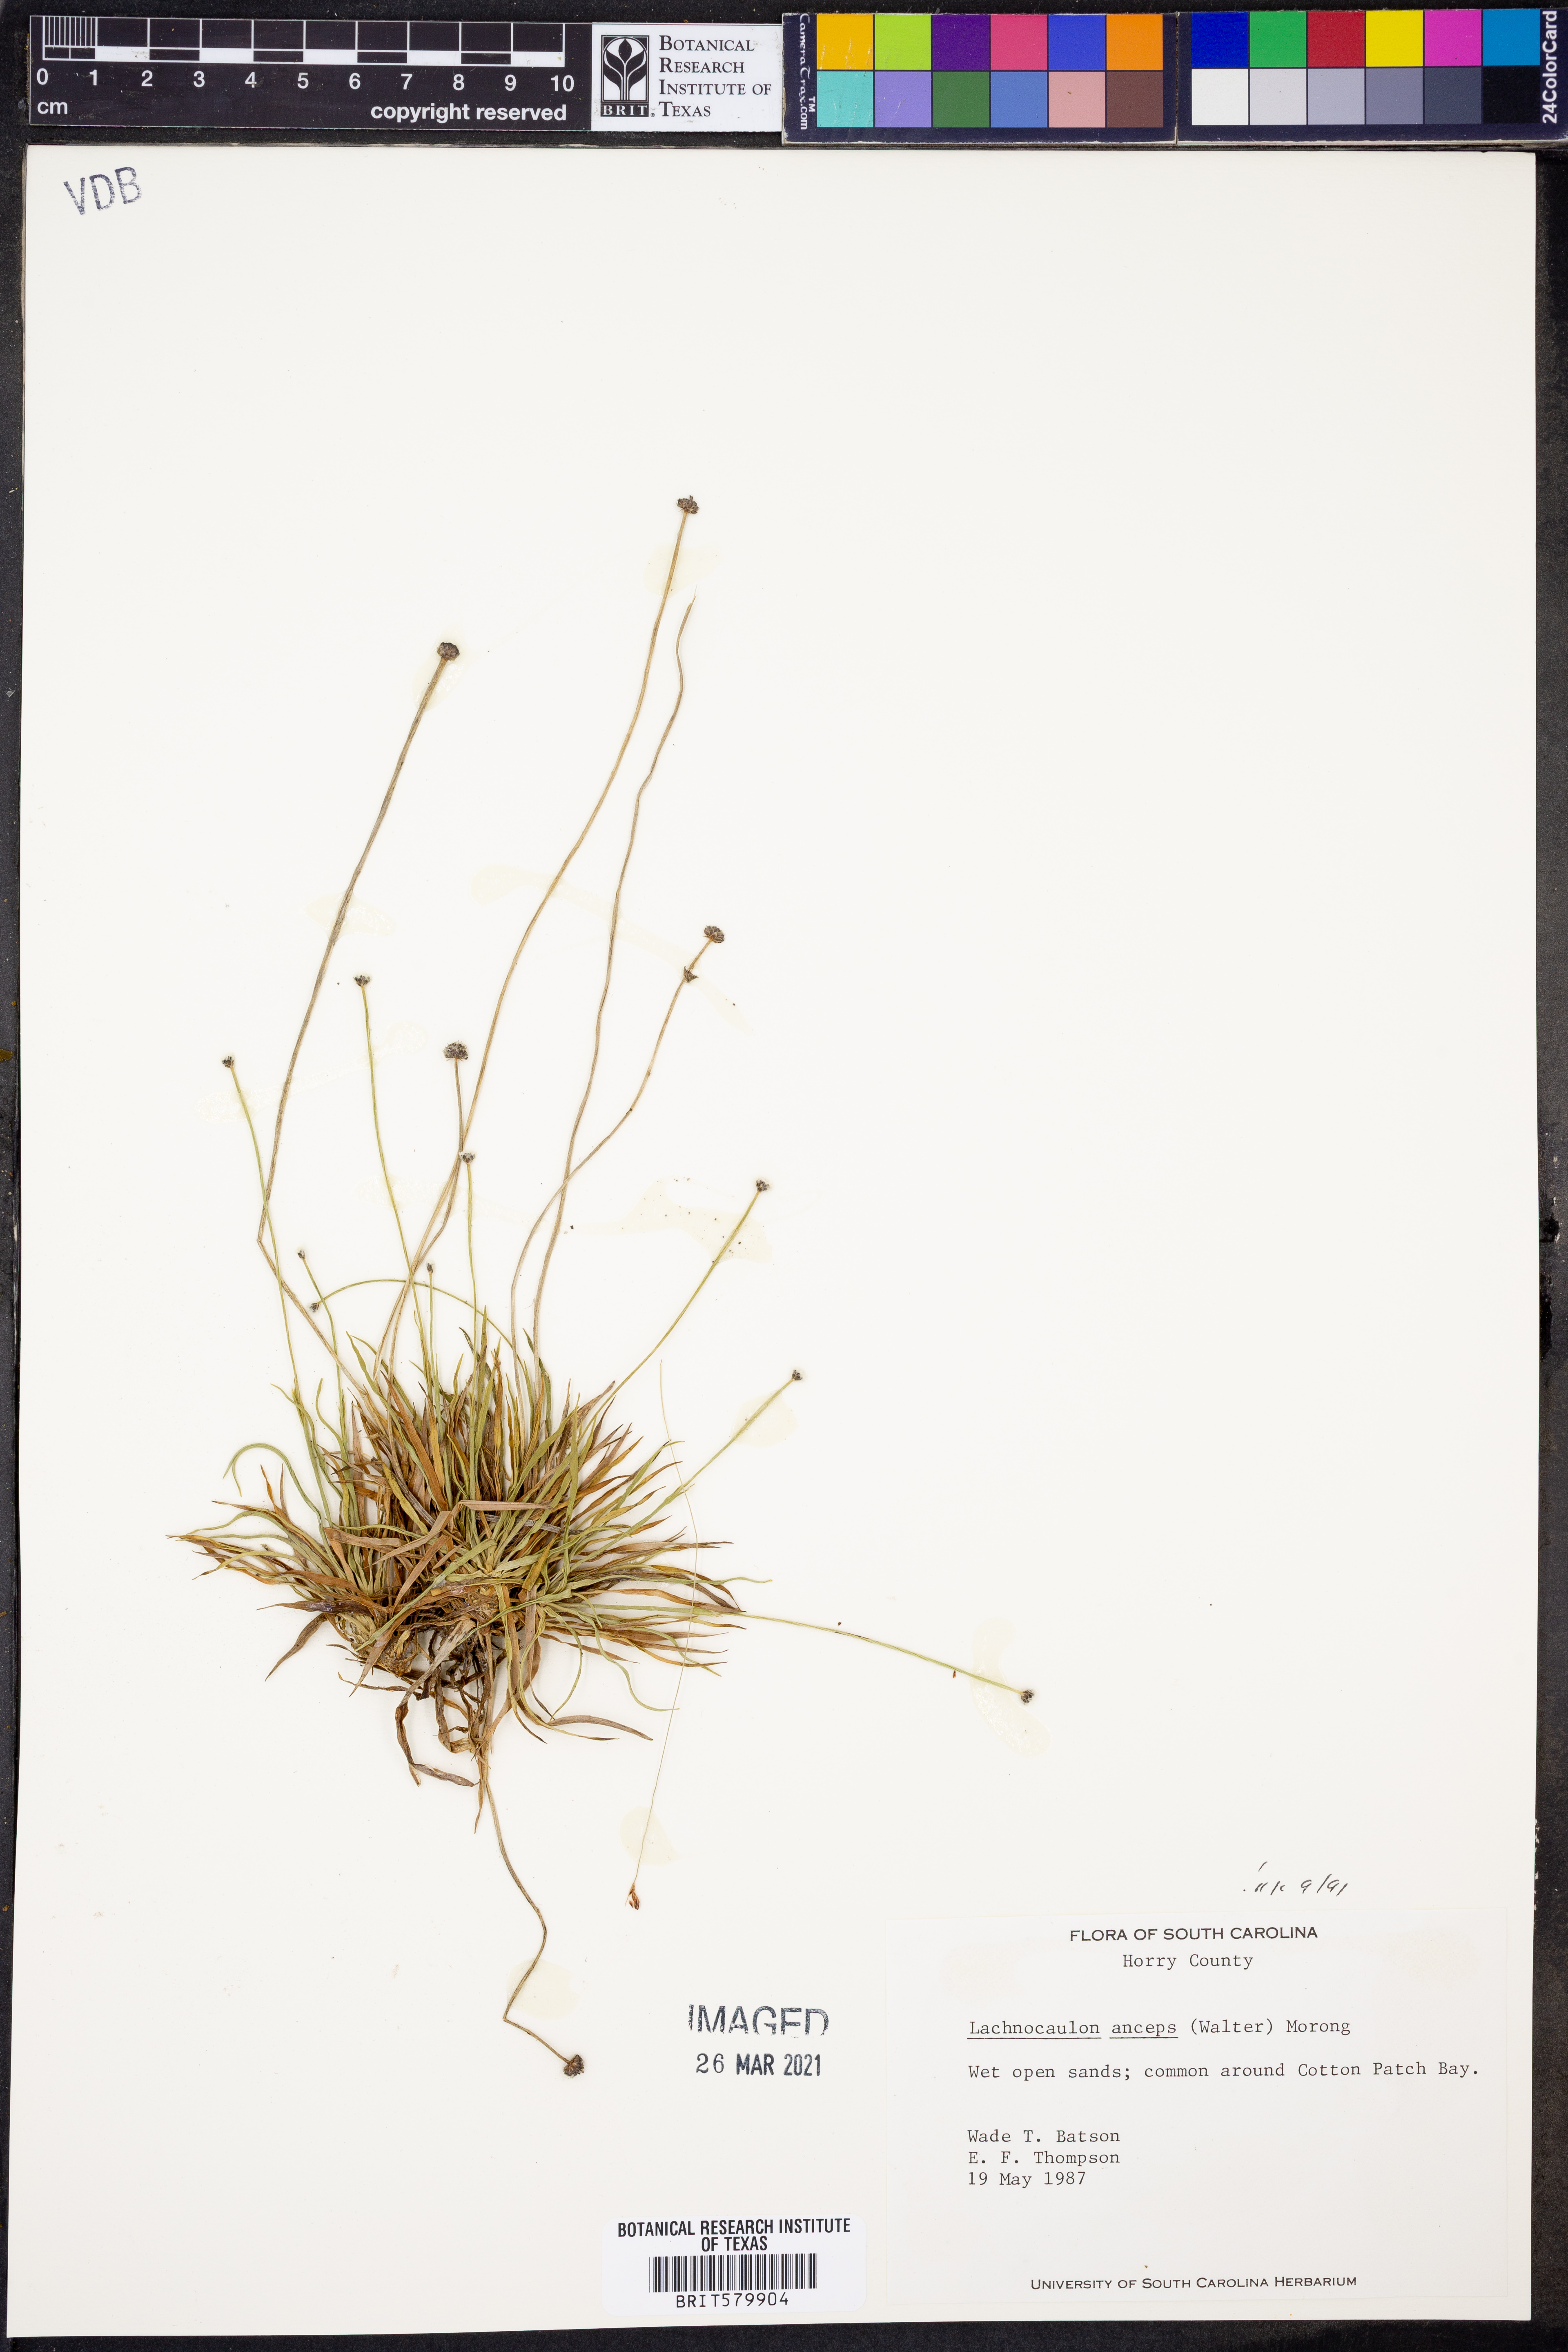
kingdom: Plantae
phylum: Tracheophyta
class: Liliopsida
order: Poales
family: Eriocaulaceae
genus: Paepalanthus
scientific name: Paepalanthus anceps
